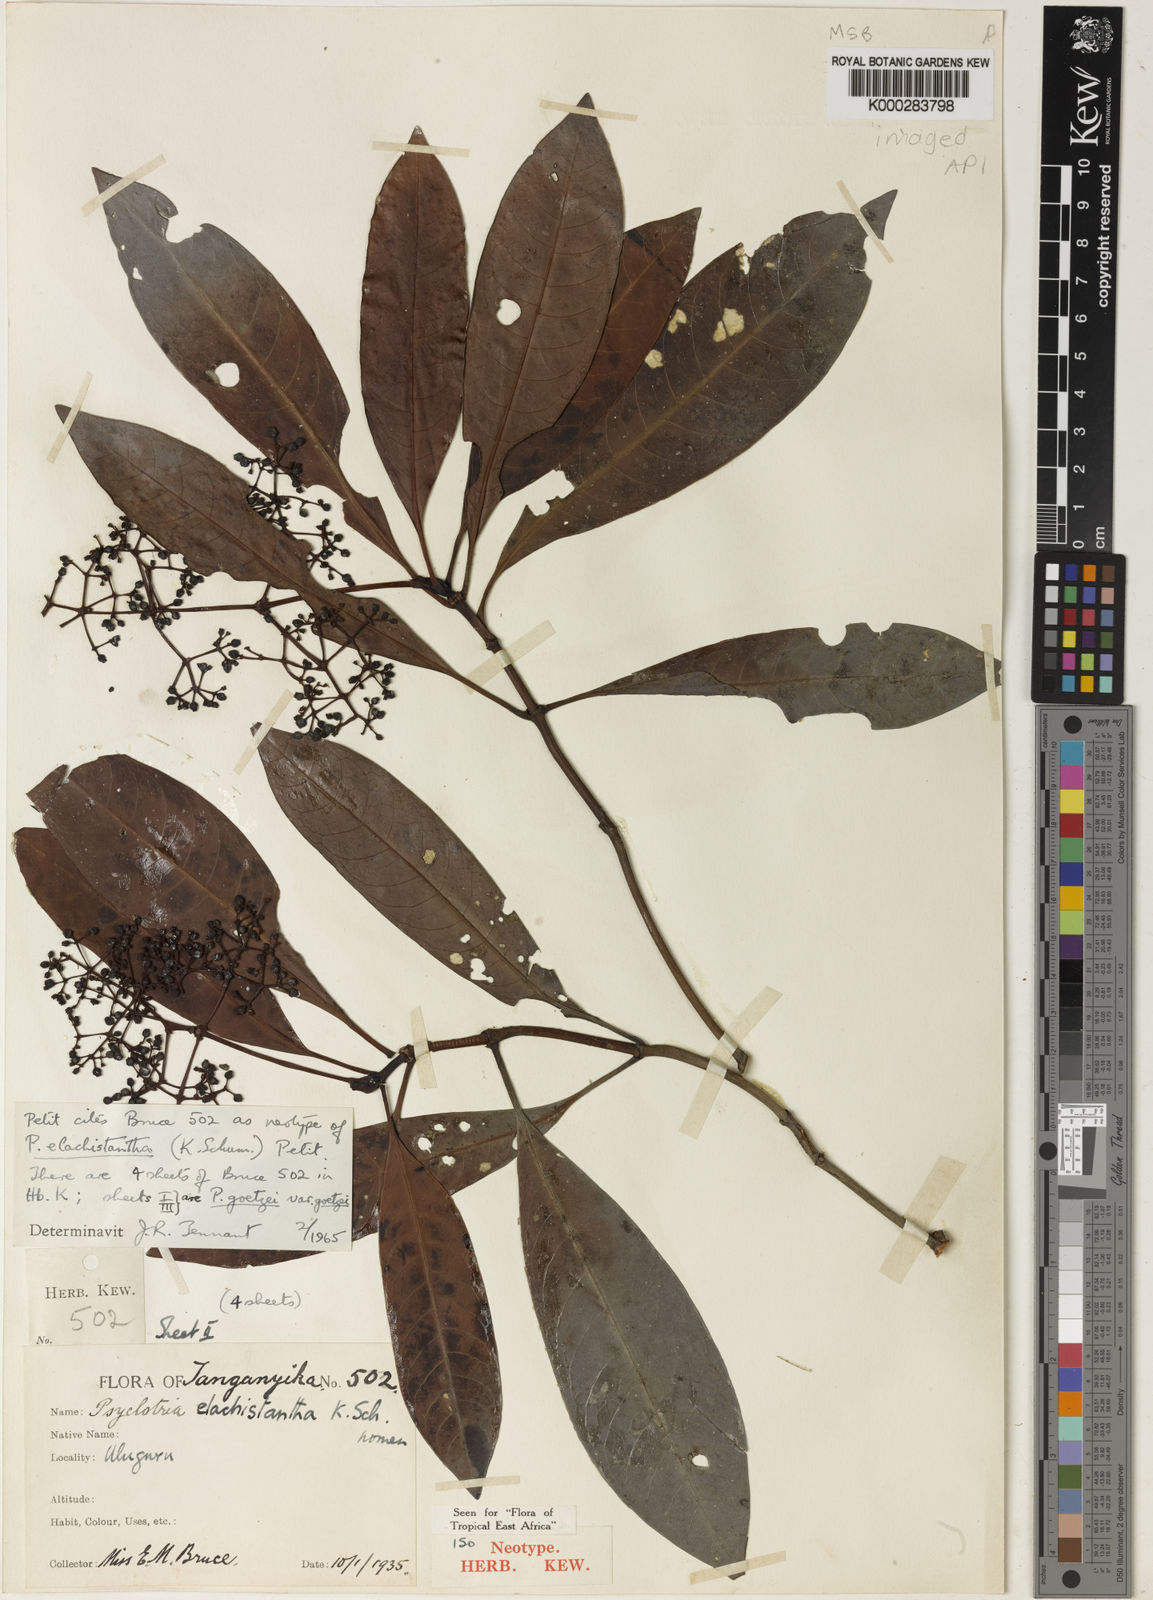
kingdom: Plantae
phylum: Tracheophyta
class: Magnoliopsida
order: Gentianales
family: Rubiaceae
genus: Psychotria
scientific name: Psychotria elachistantha
